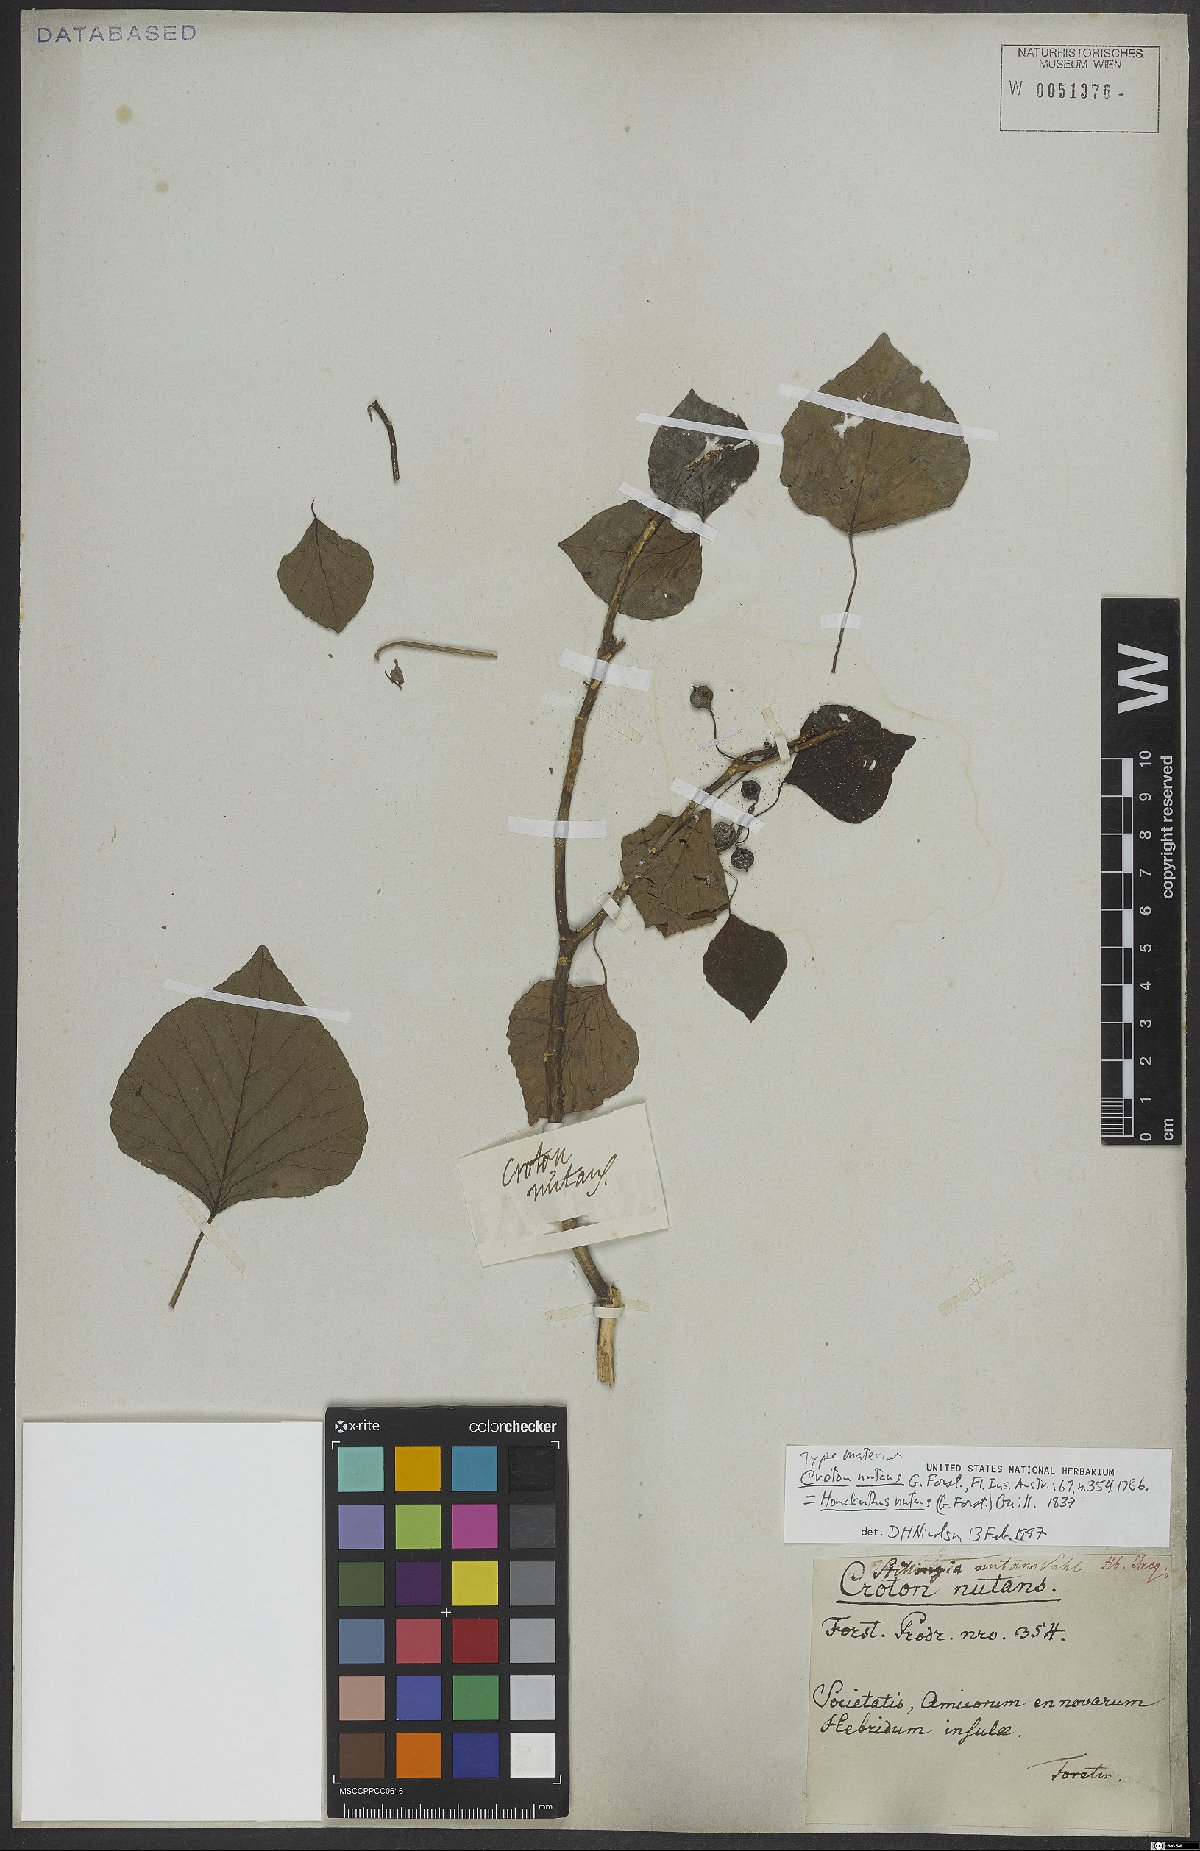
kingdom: Plantae
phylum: Tracheophyta
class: Magnoliopsida
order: Malpighiales
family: Euphorbiaceae
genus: Homalanthus
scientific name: Homalanthus nutans
